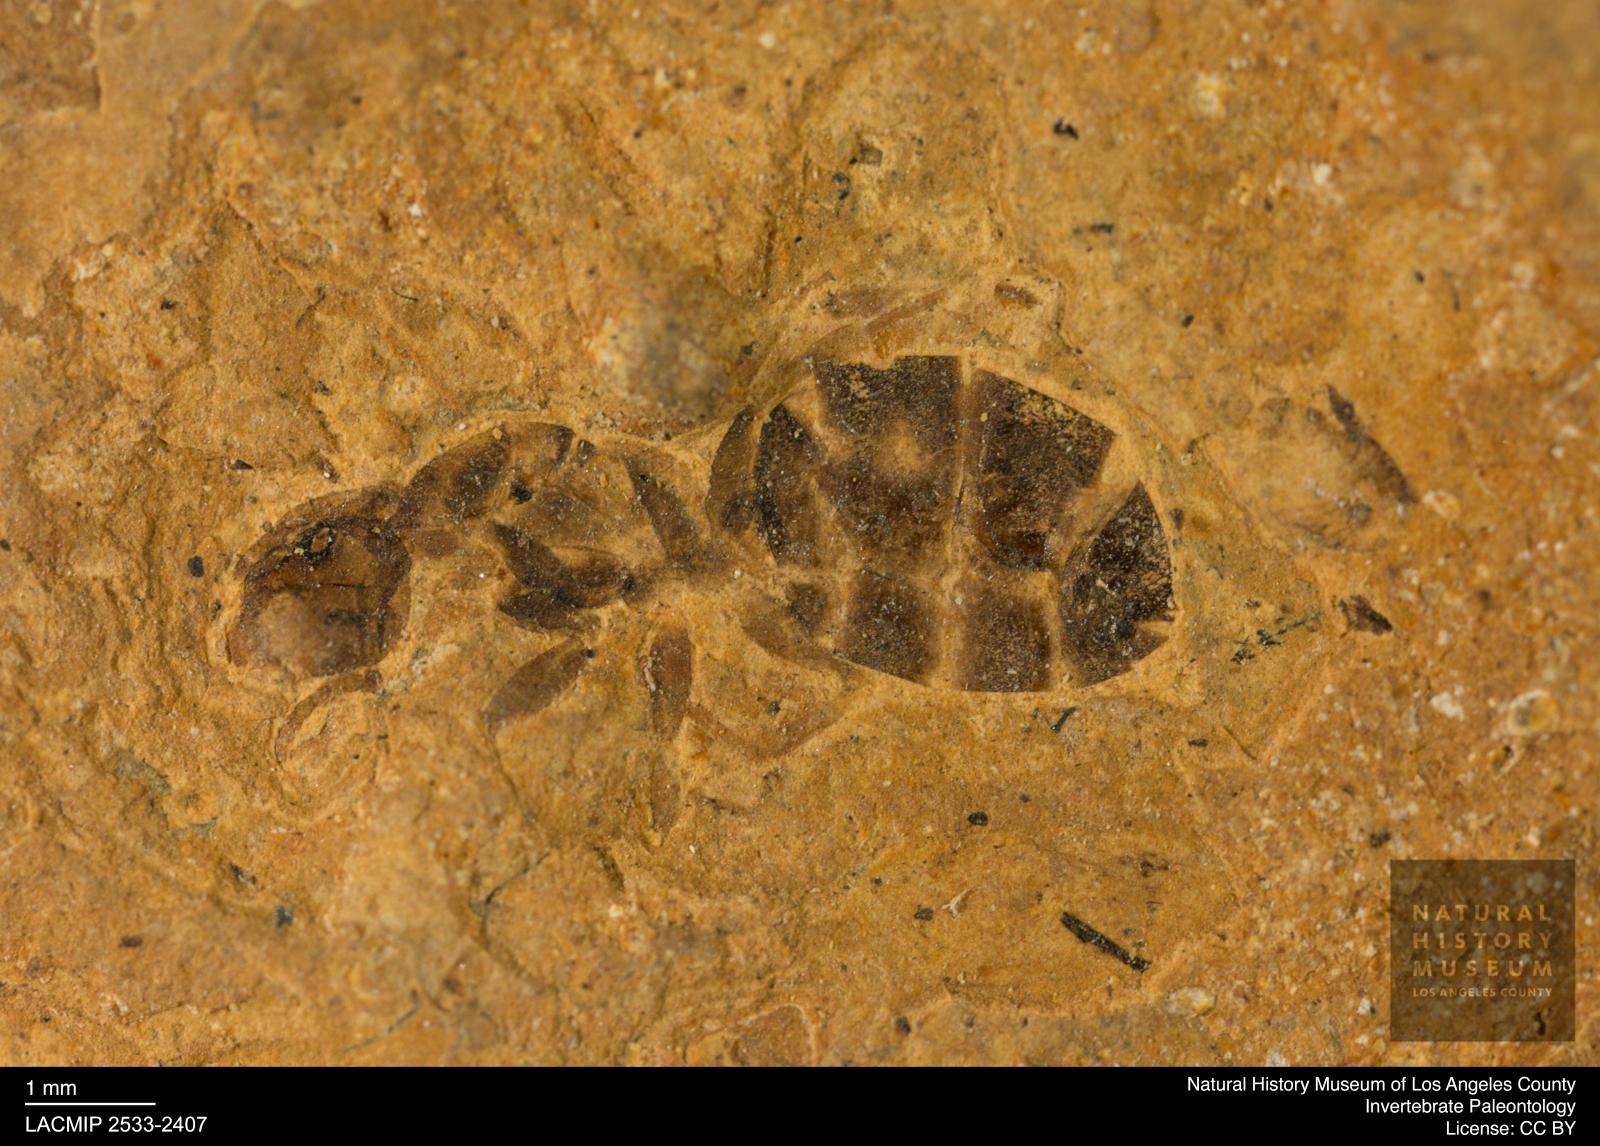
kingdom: Animalia
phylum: Arthropoda
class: Insecta
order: Hymenoptera
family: Formicidae
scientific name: Formicidae
